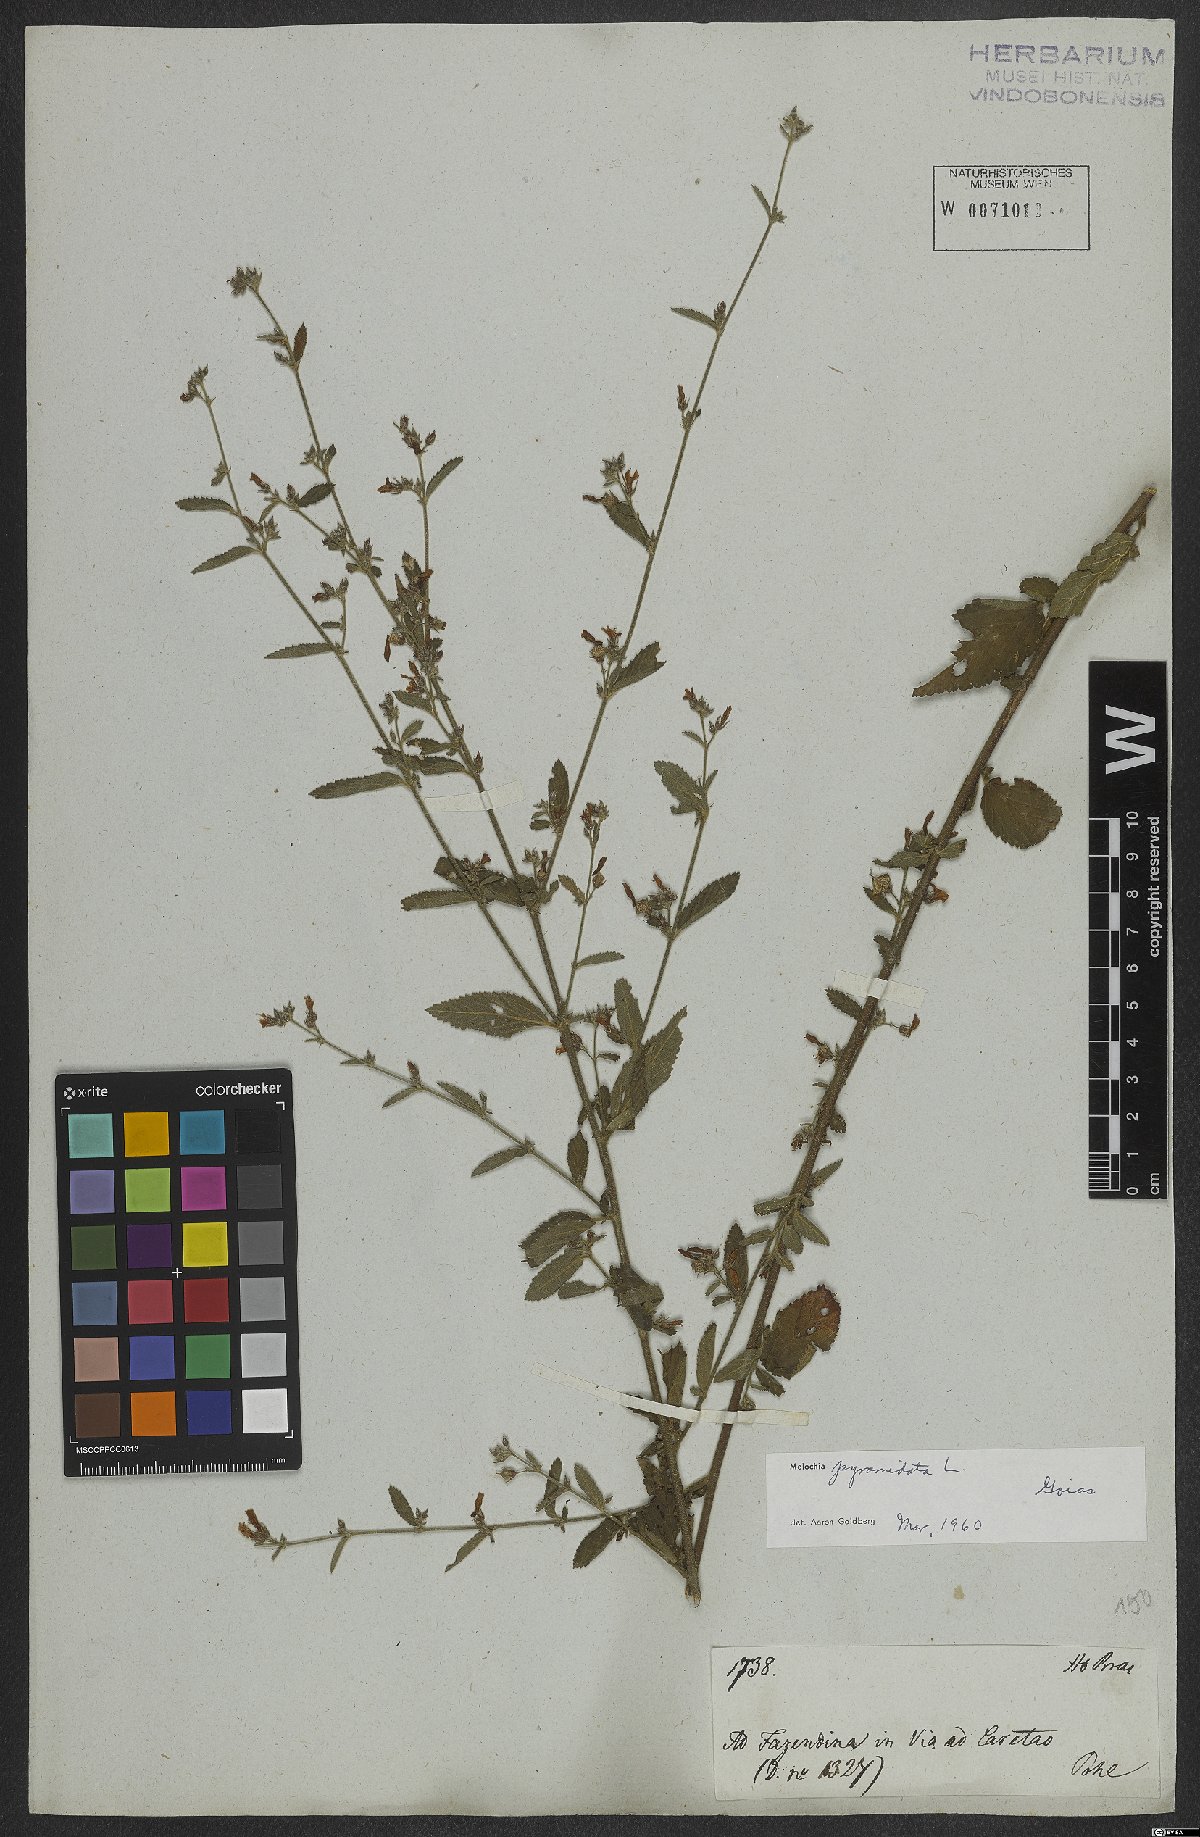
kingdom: Plantae
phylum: Tracheophyta
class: Magnoliopsida
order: Malvales
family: Malvaceae
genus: Melochia
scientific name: Melochia pyramidata
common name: Pyramidflower
